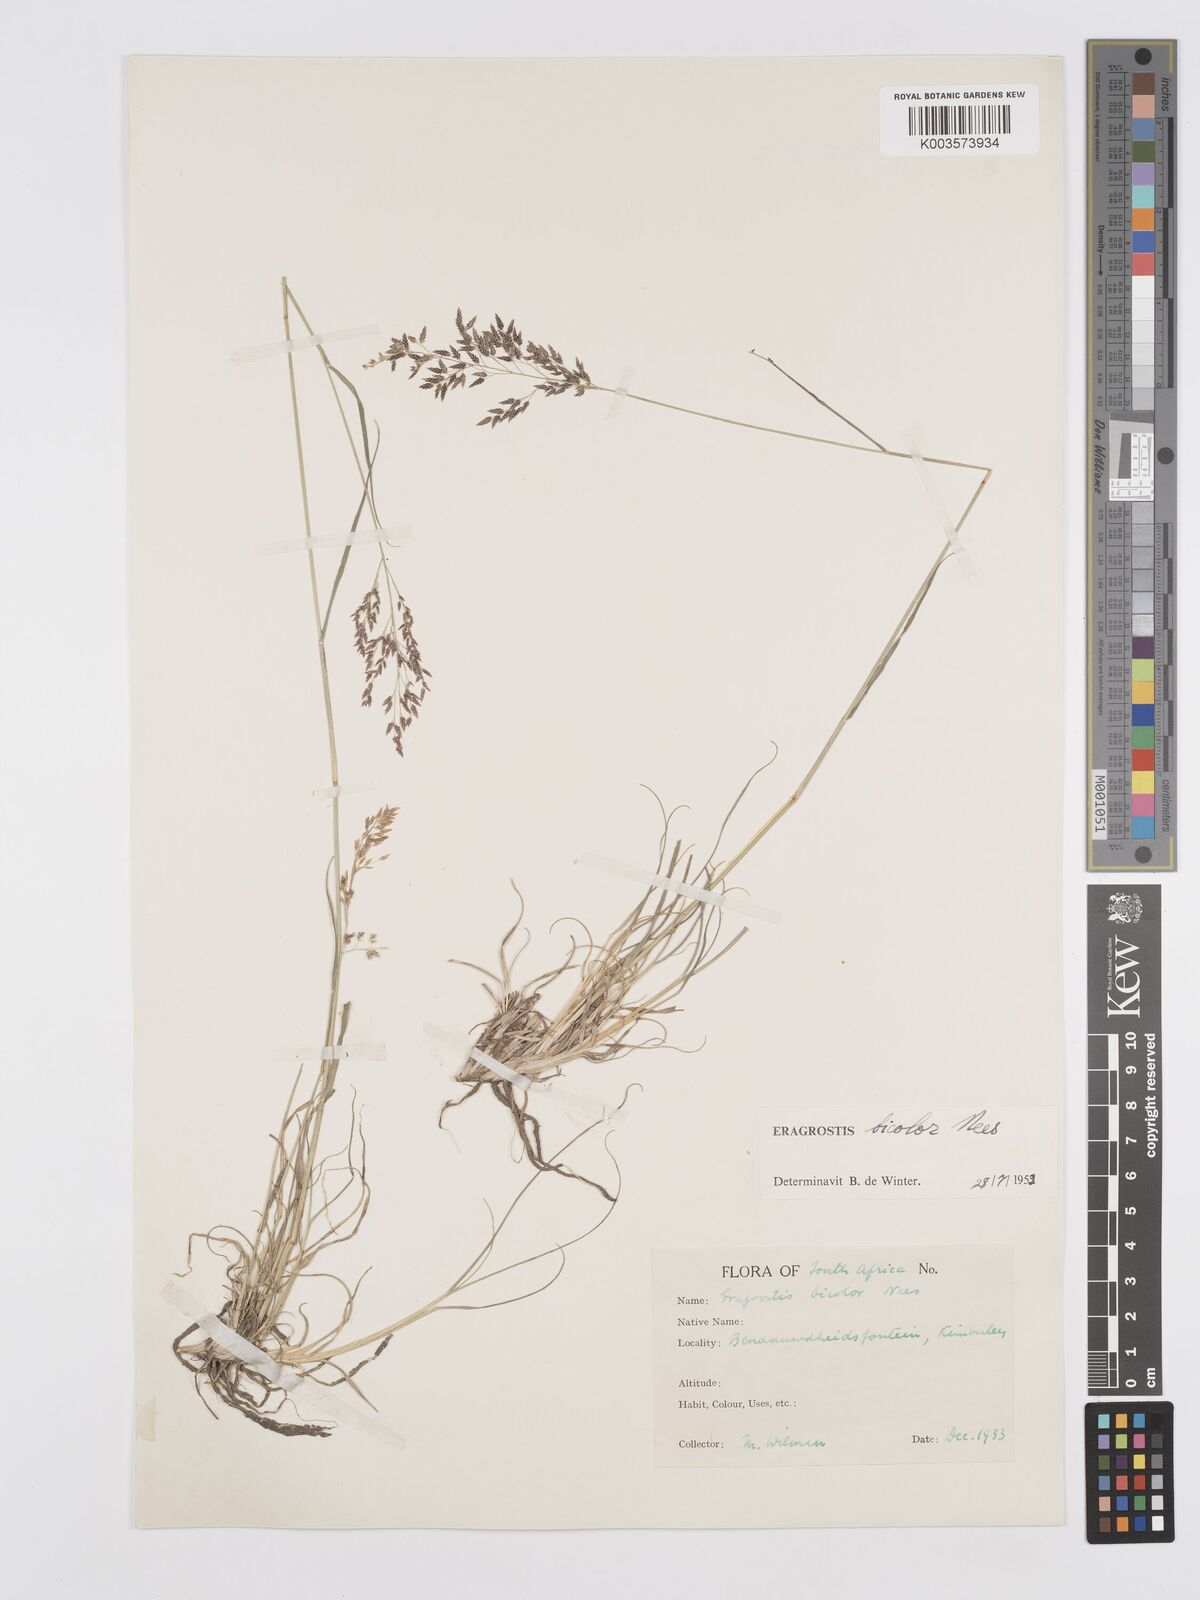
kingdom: Plantae
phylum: Tracheophyta
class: Liliopsida
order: Poales
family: Poaceae
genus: Eragrostis
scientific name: Eragrostis
